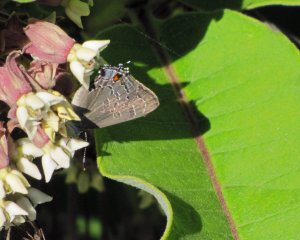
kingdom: Animalia
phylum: Arthropoda
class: Insecta
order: Lepidoptera
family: Lycaenidae
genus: Satyrium
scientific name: Satyrium calanus
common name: Banded Hairstreak
